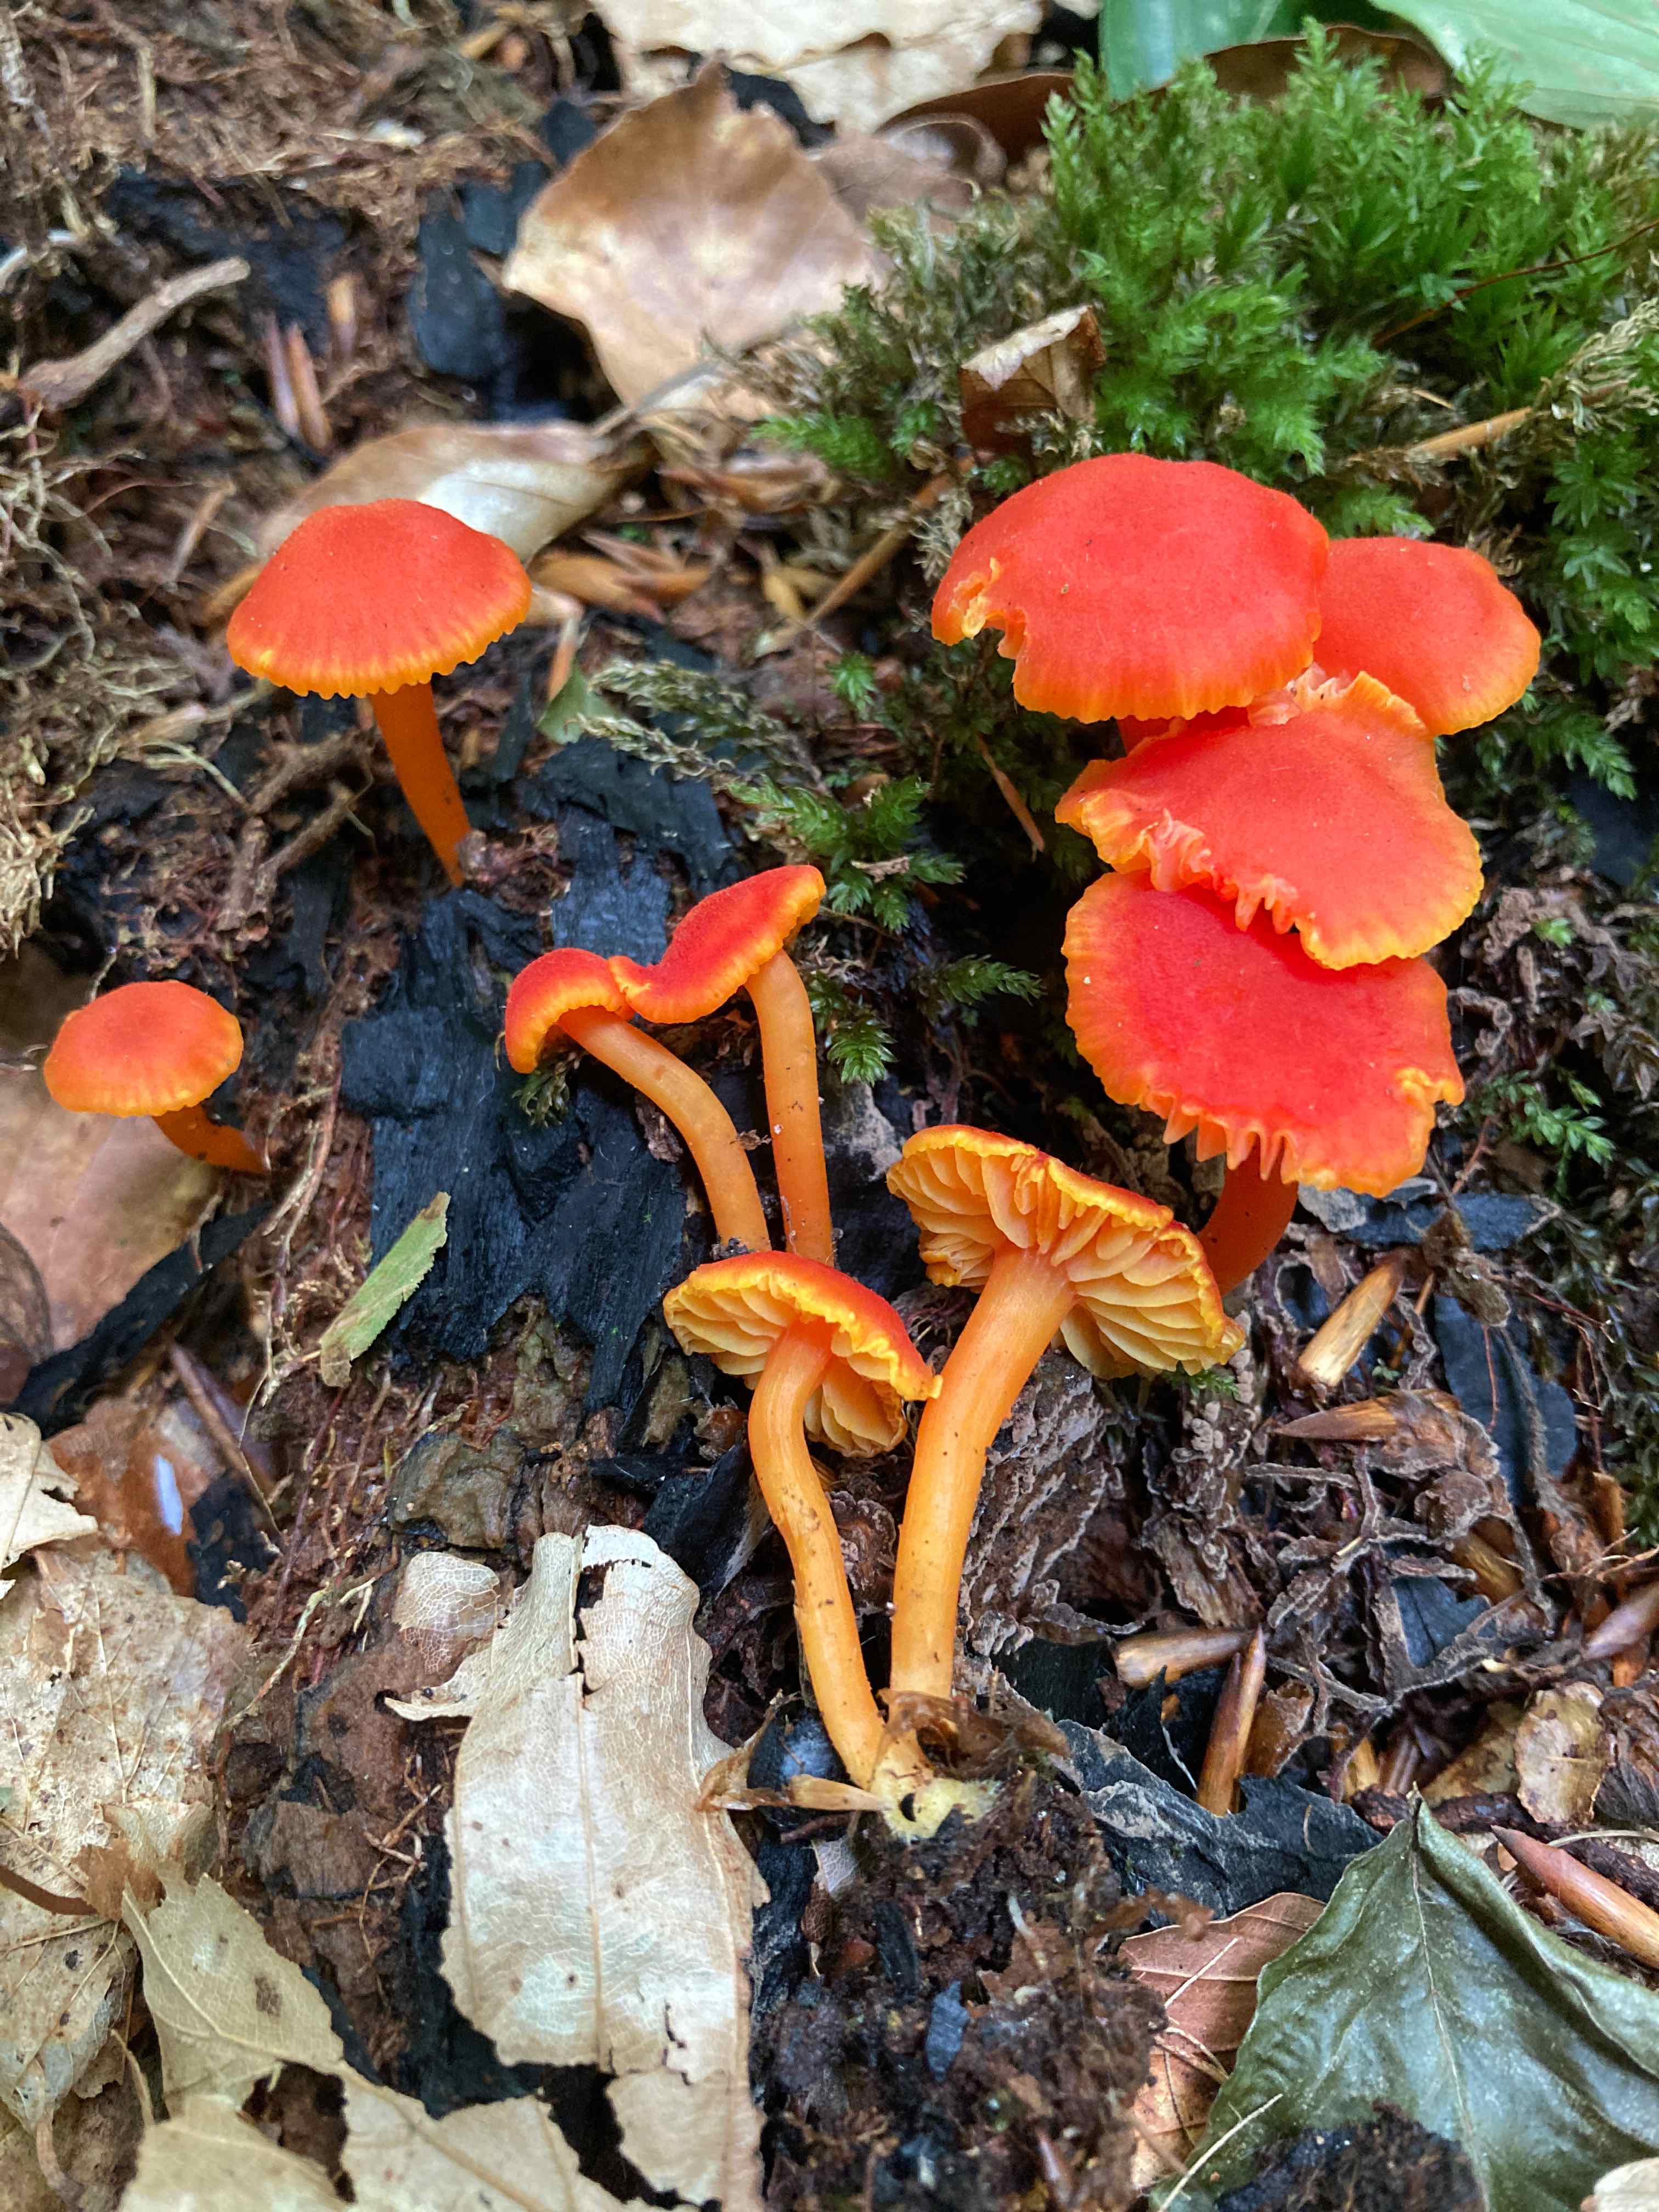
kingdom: Fungi
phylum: Basidiomycota
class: Agaricomycetes
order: Agaricales
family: Hygrophoraceae
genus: Hygrocybe
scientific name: Hygrocybe miniata
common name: mønje-vokshat
